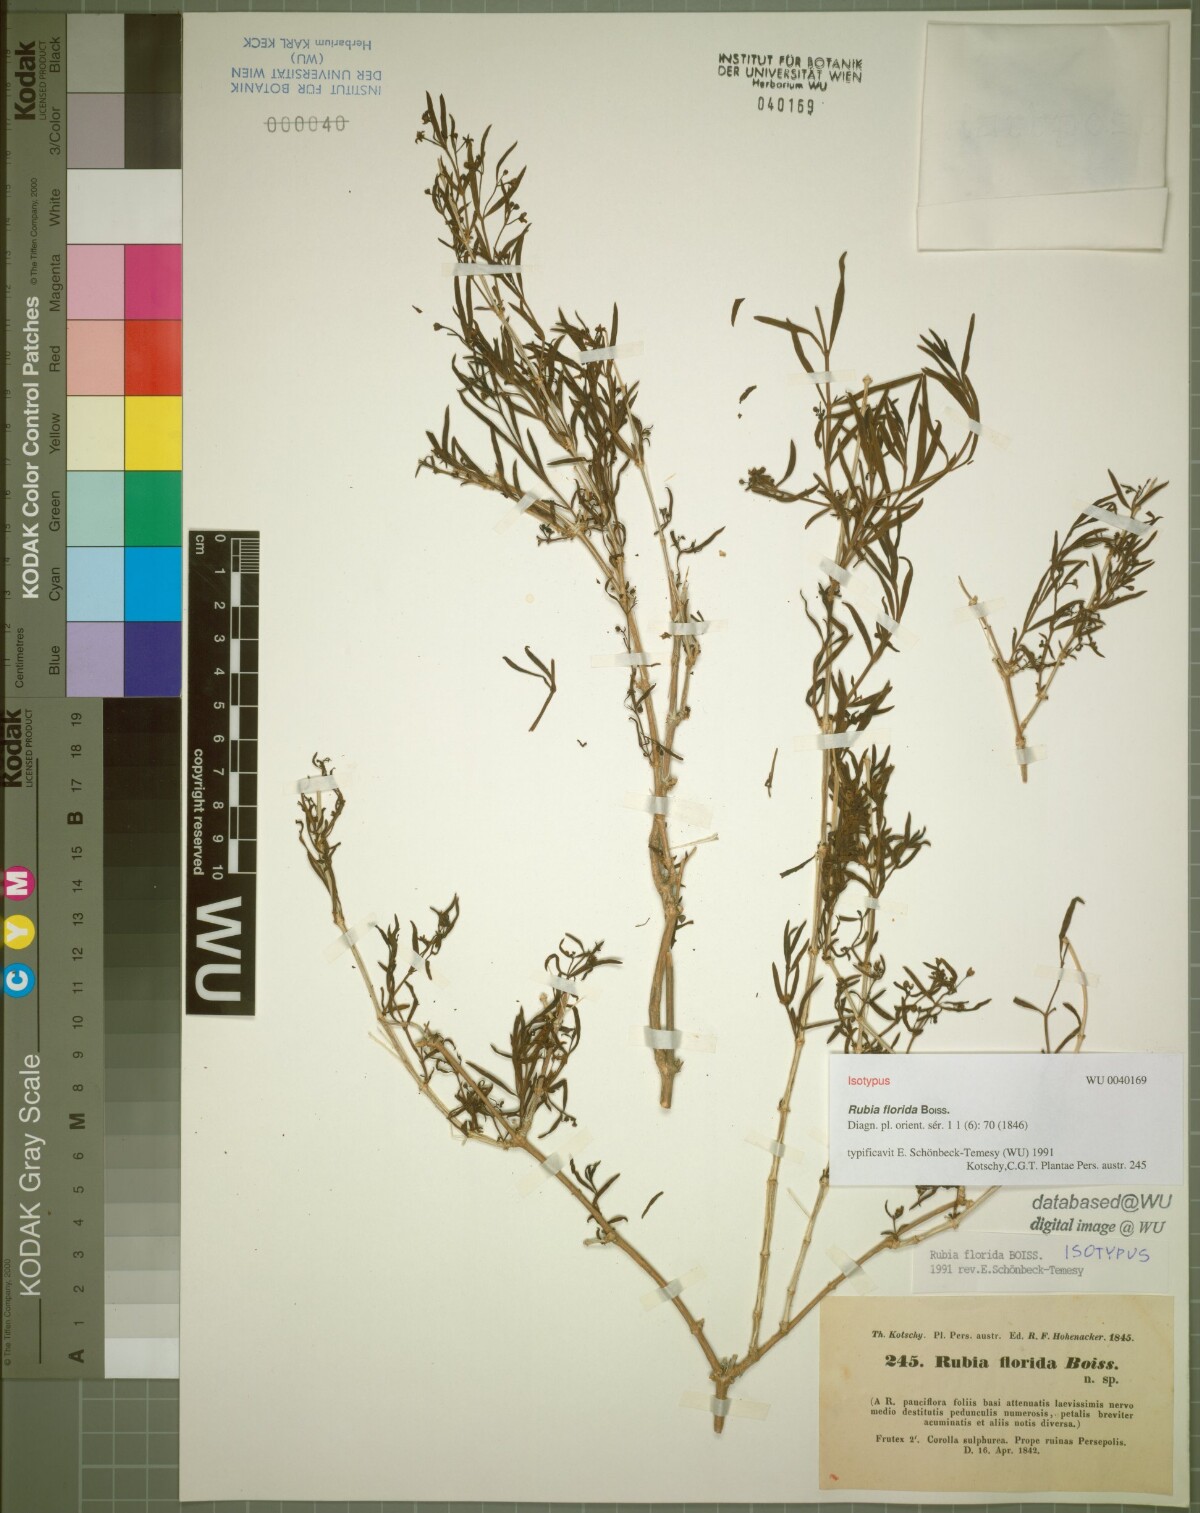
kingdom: Plantae
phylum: Tracheophyta
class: Magnoliopsida
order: Gentianales
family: Rubiaceae
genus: Rubia
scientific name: Rubia florida
